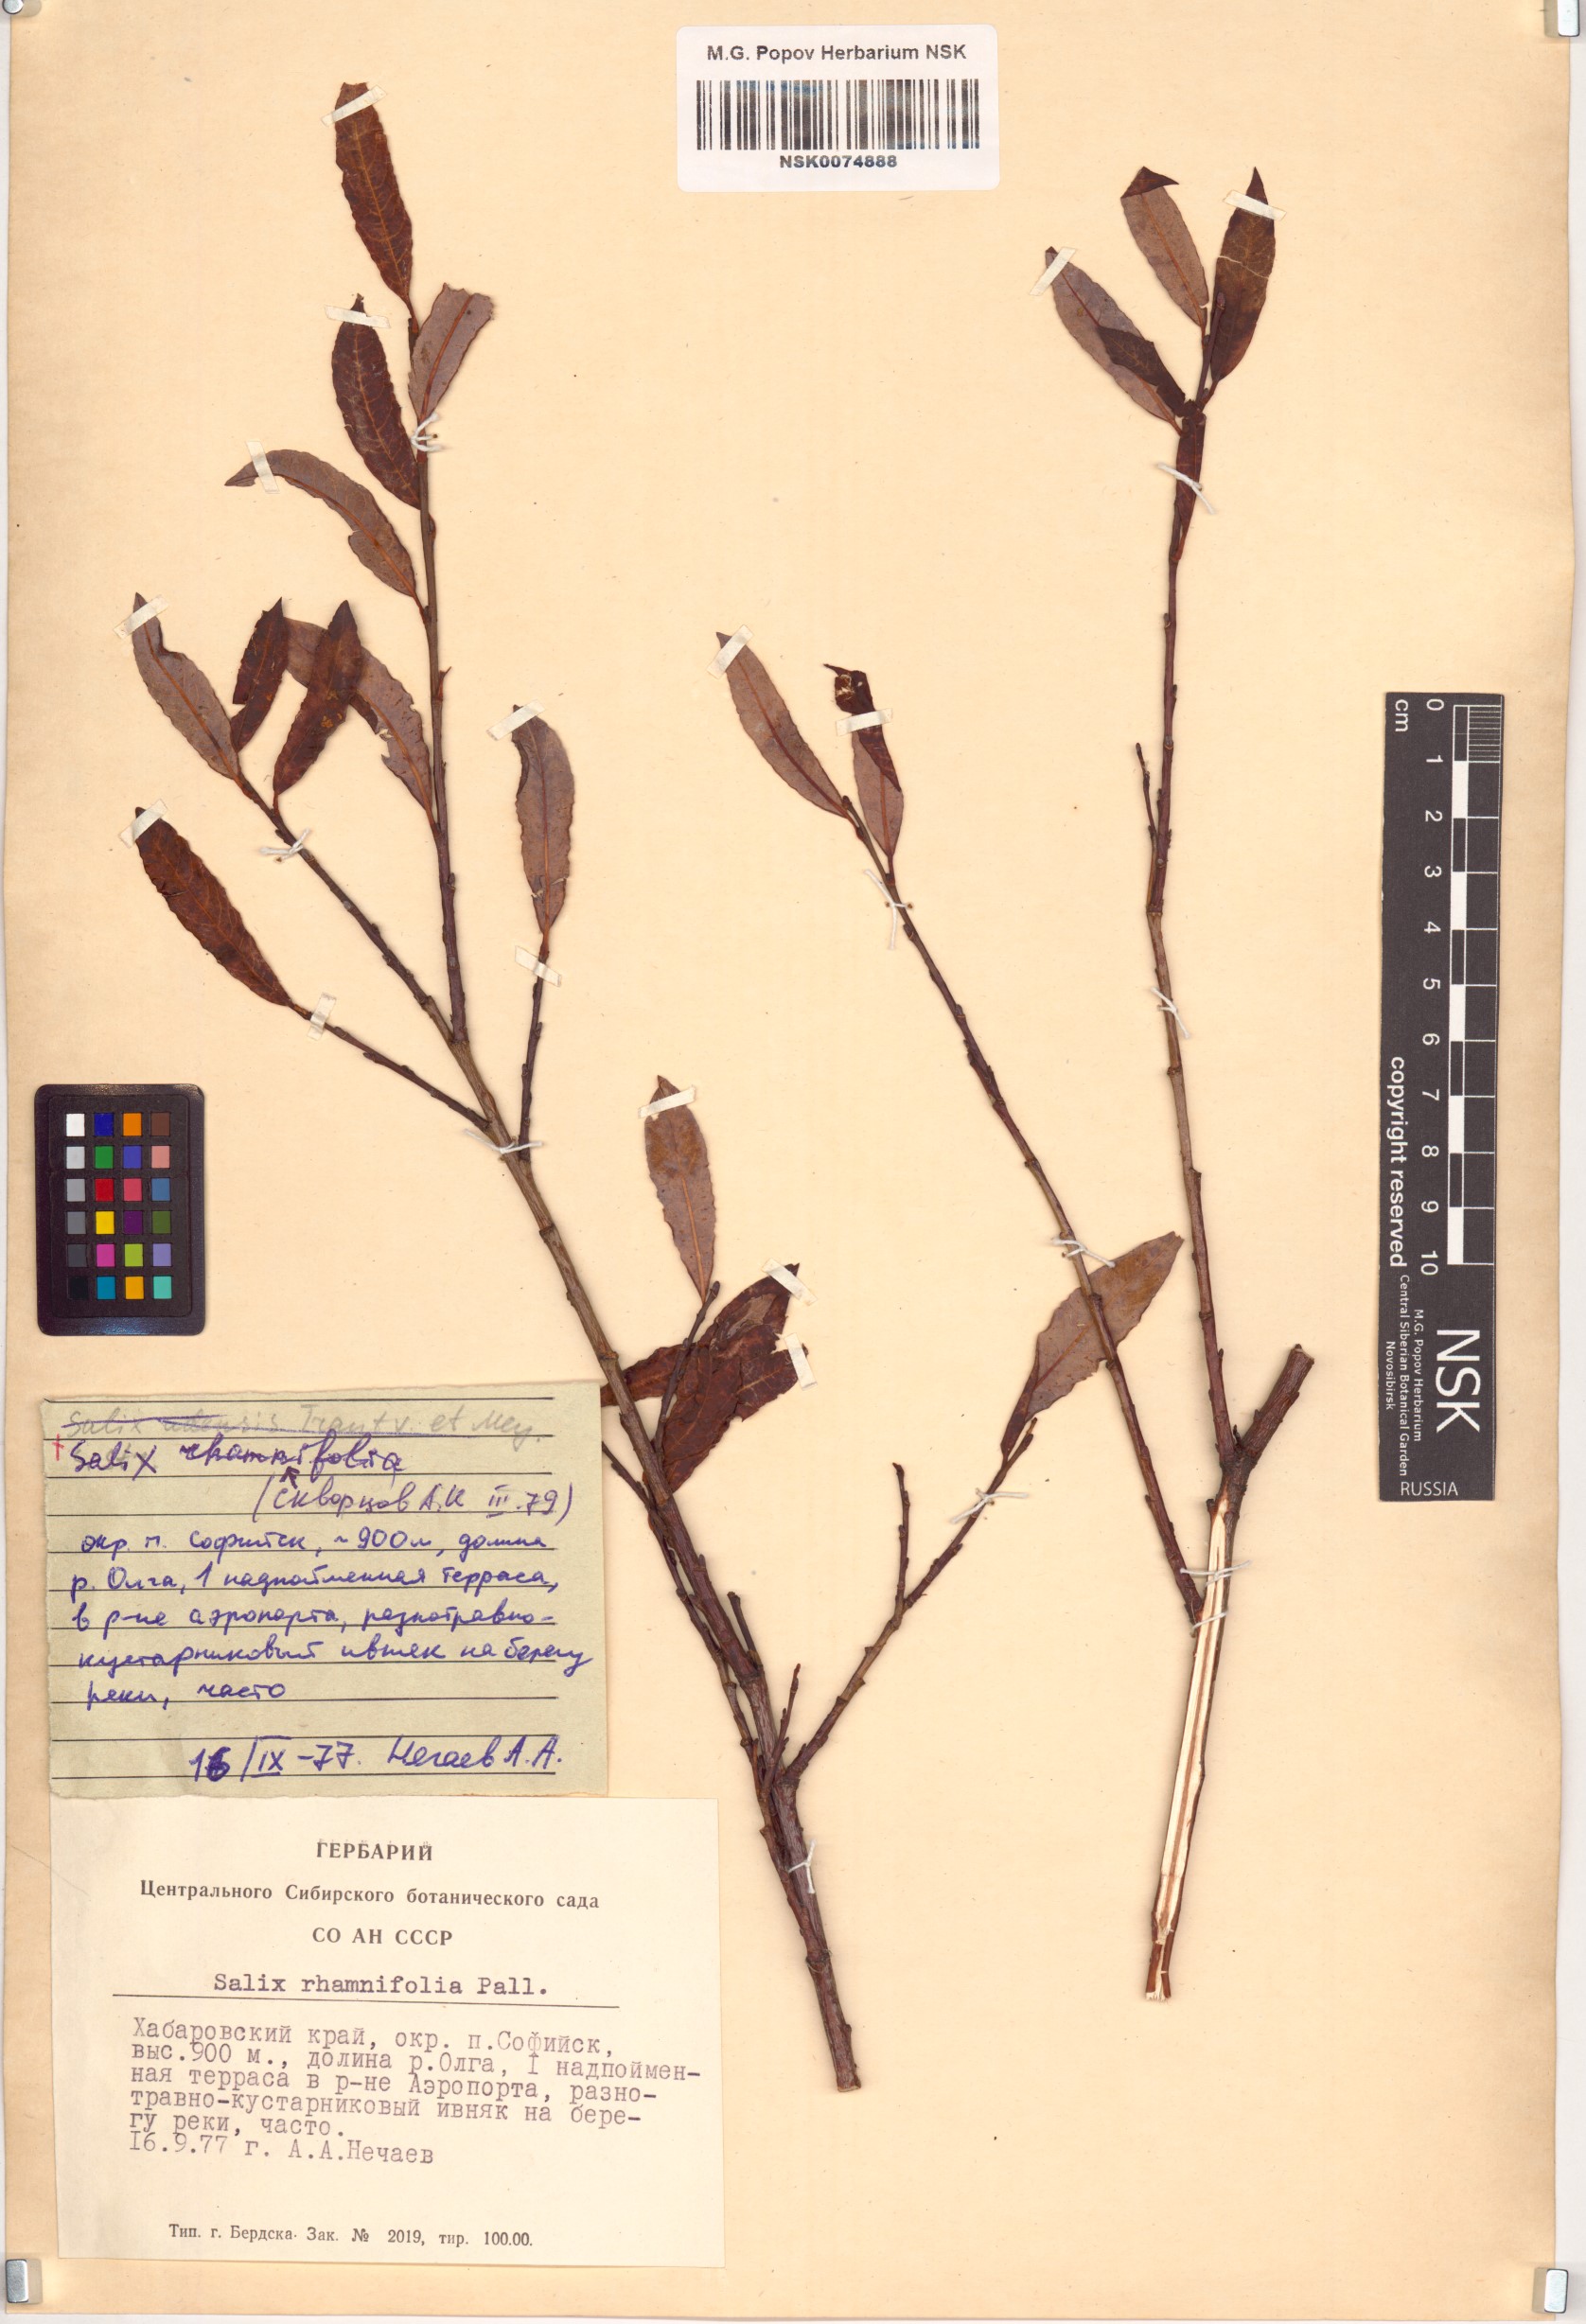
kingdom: Plantae
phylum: Tracheophyta
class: Magnoliopsida
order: Malpighiales
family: Salicaceae
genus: Salix
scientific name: Salix rhamnifolia
